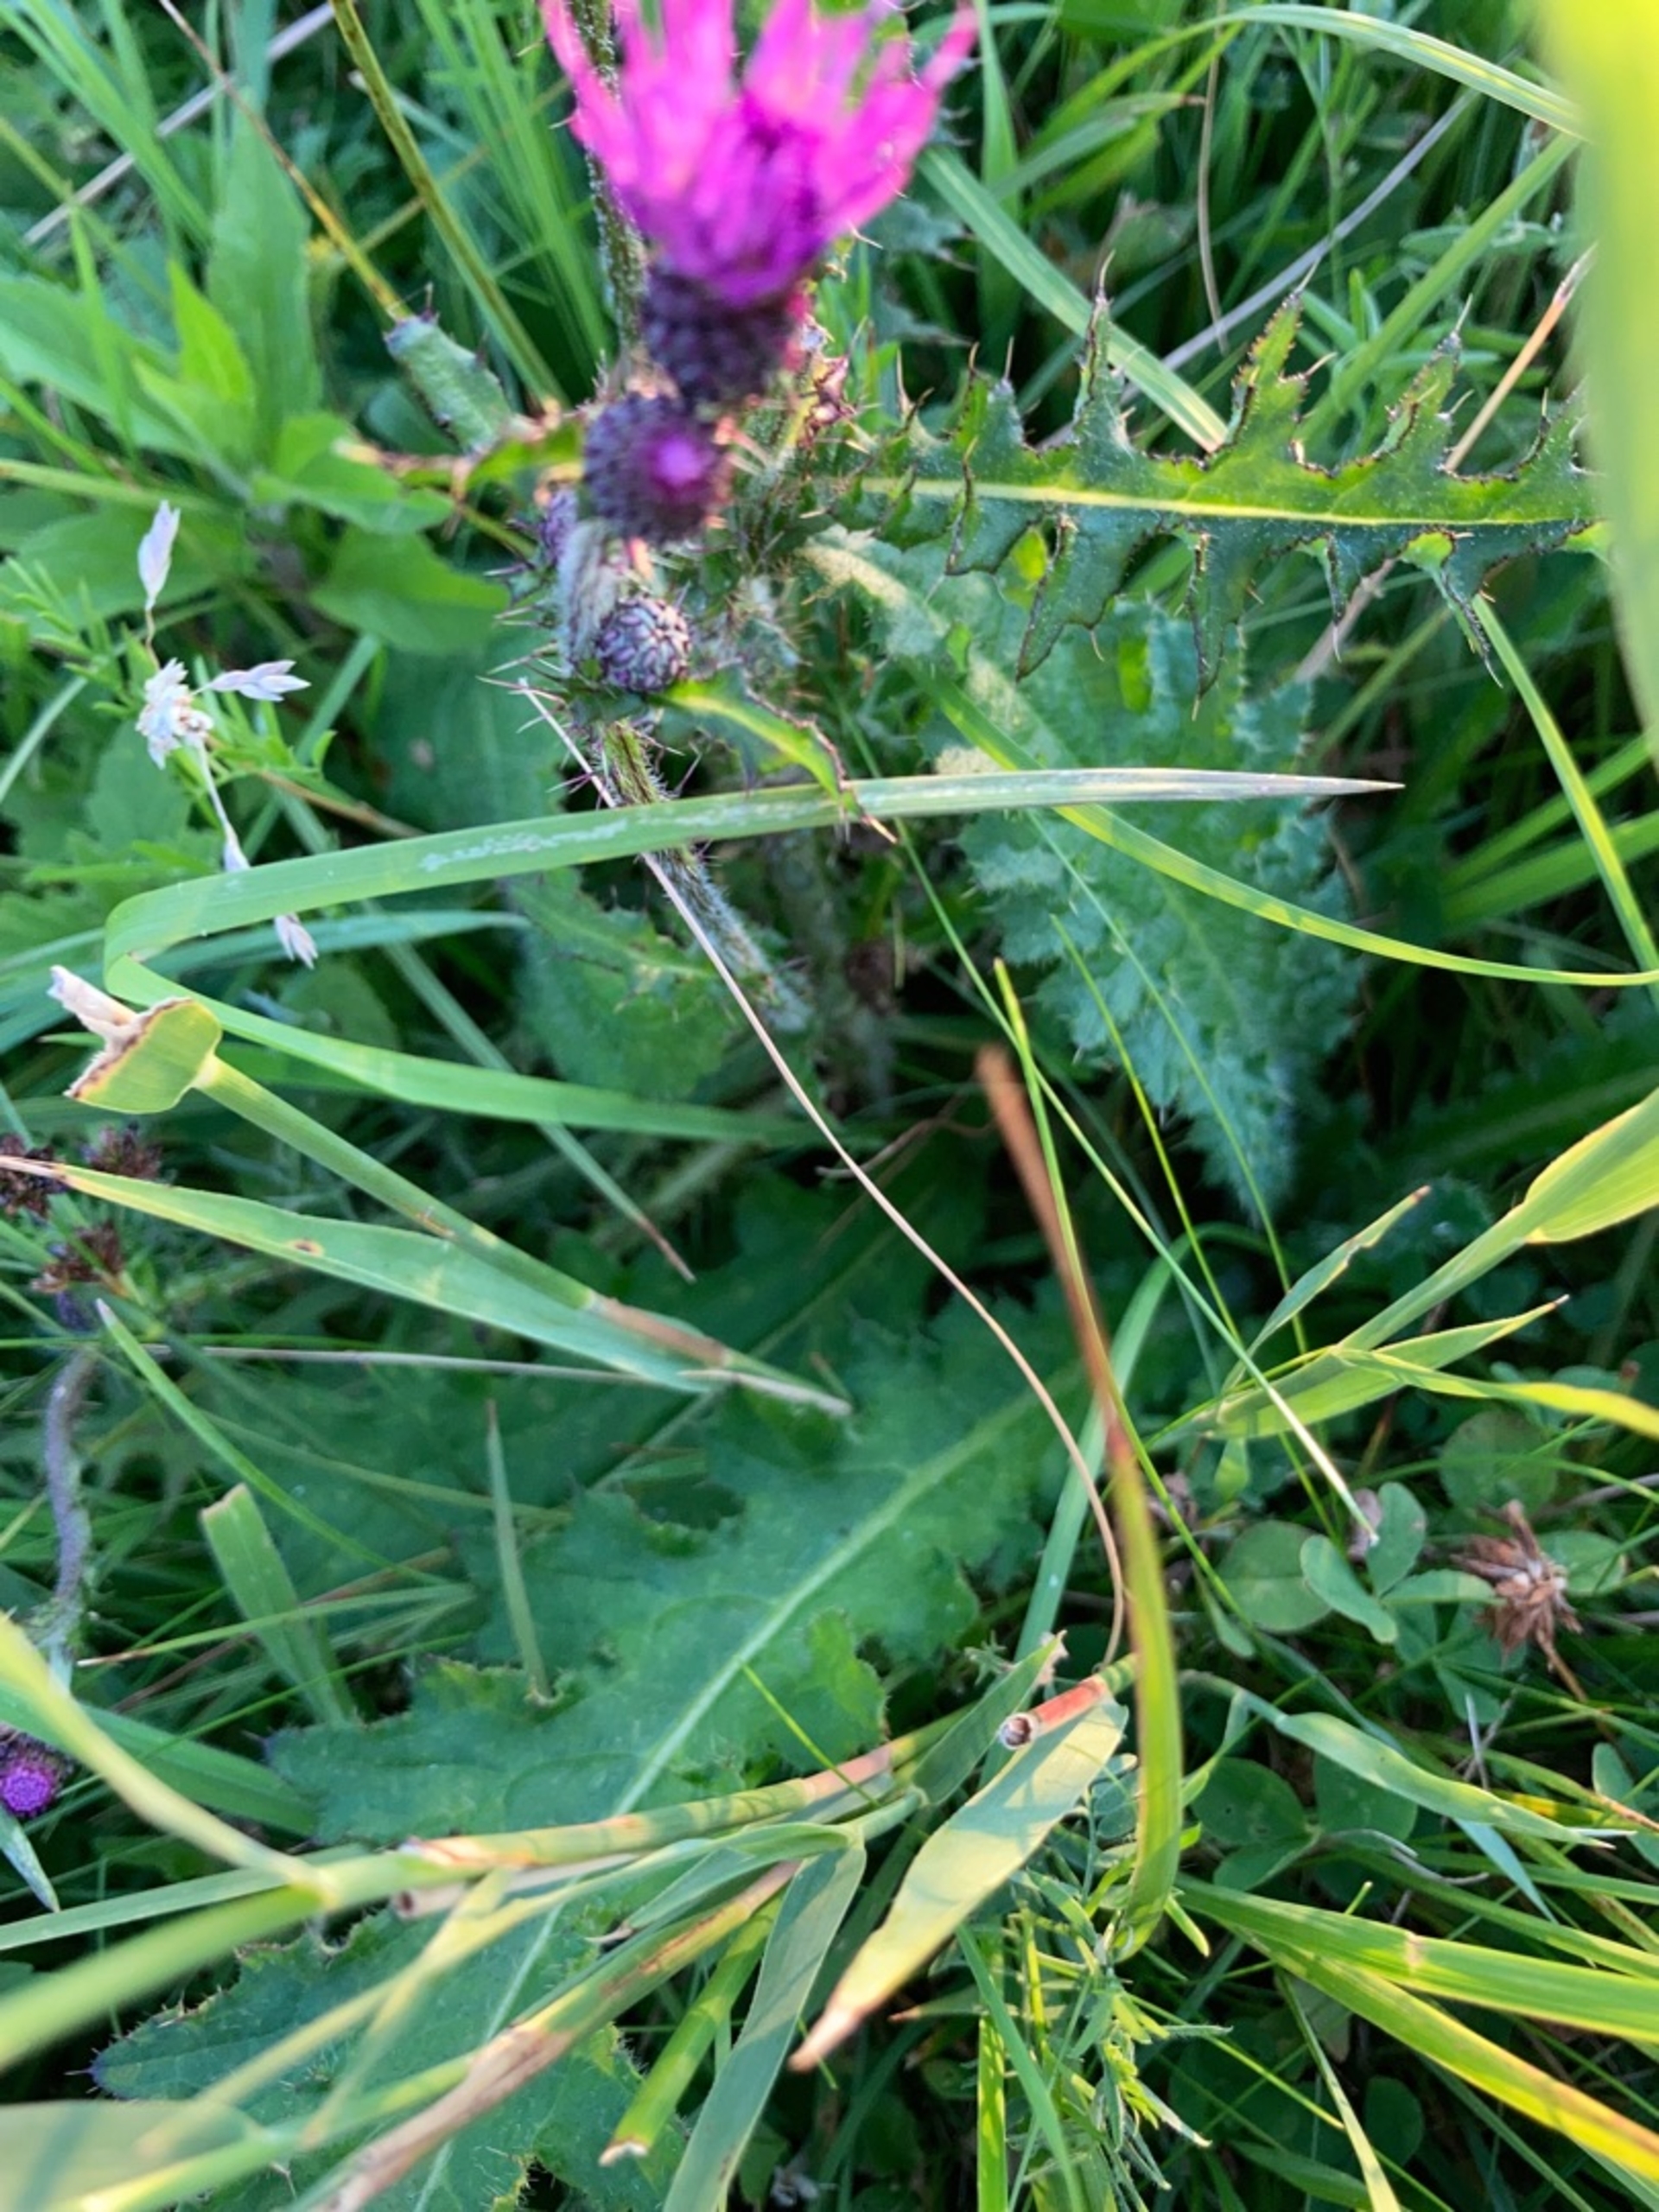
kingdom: Plantae
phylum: Tracheophyta
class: Magnoliopsida
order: Asterales
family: Asteraceae
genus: Cirsium
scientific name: Cirsium palustre
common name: Kær-tidsel
